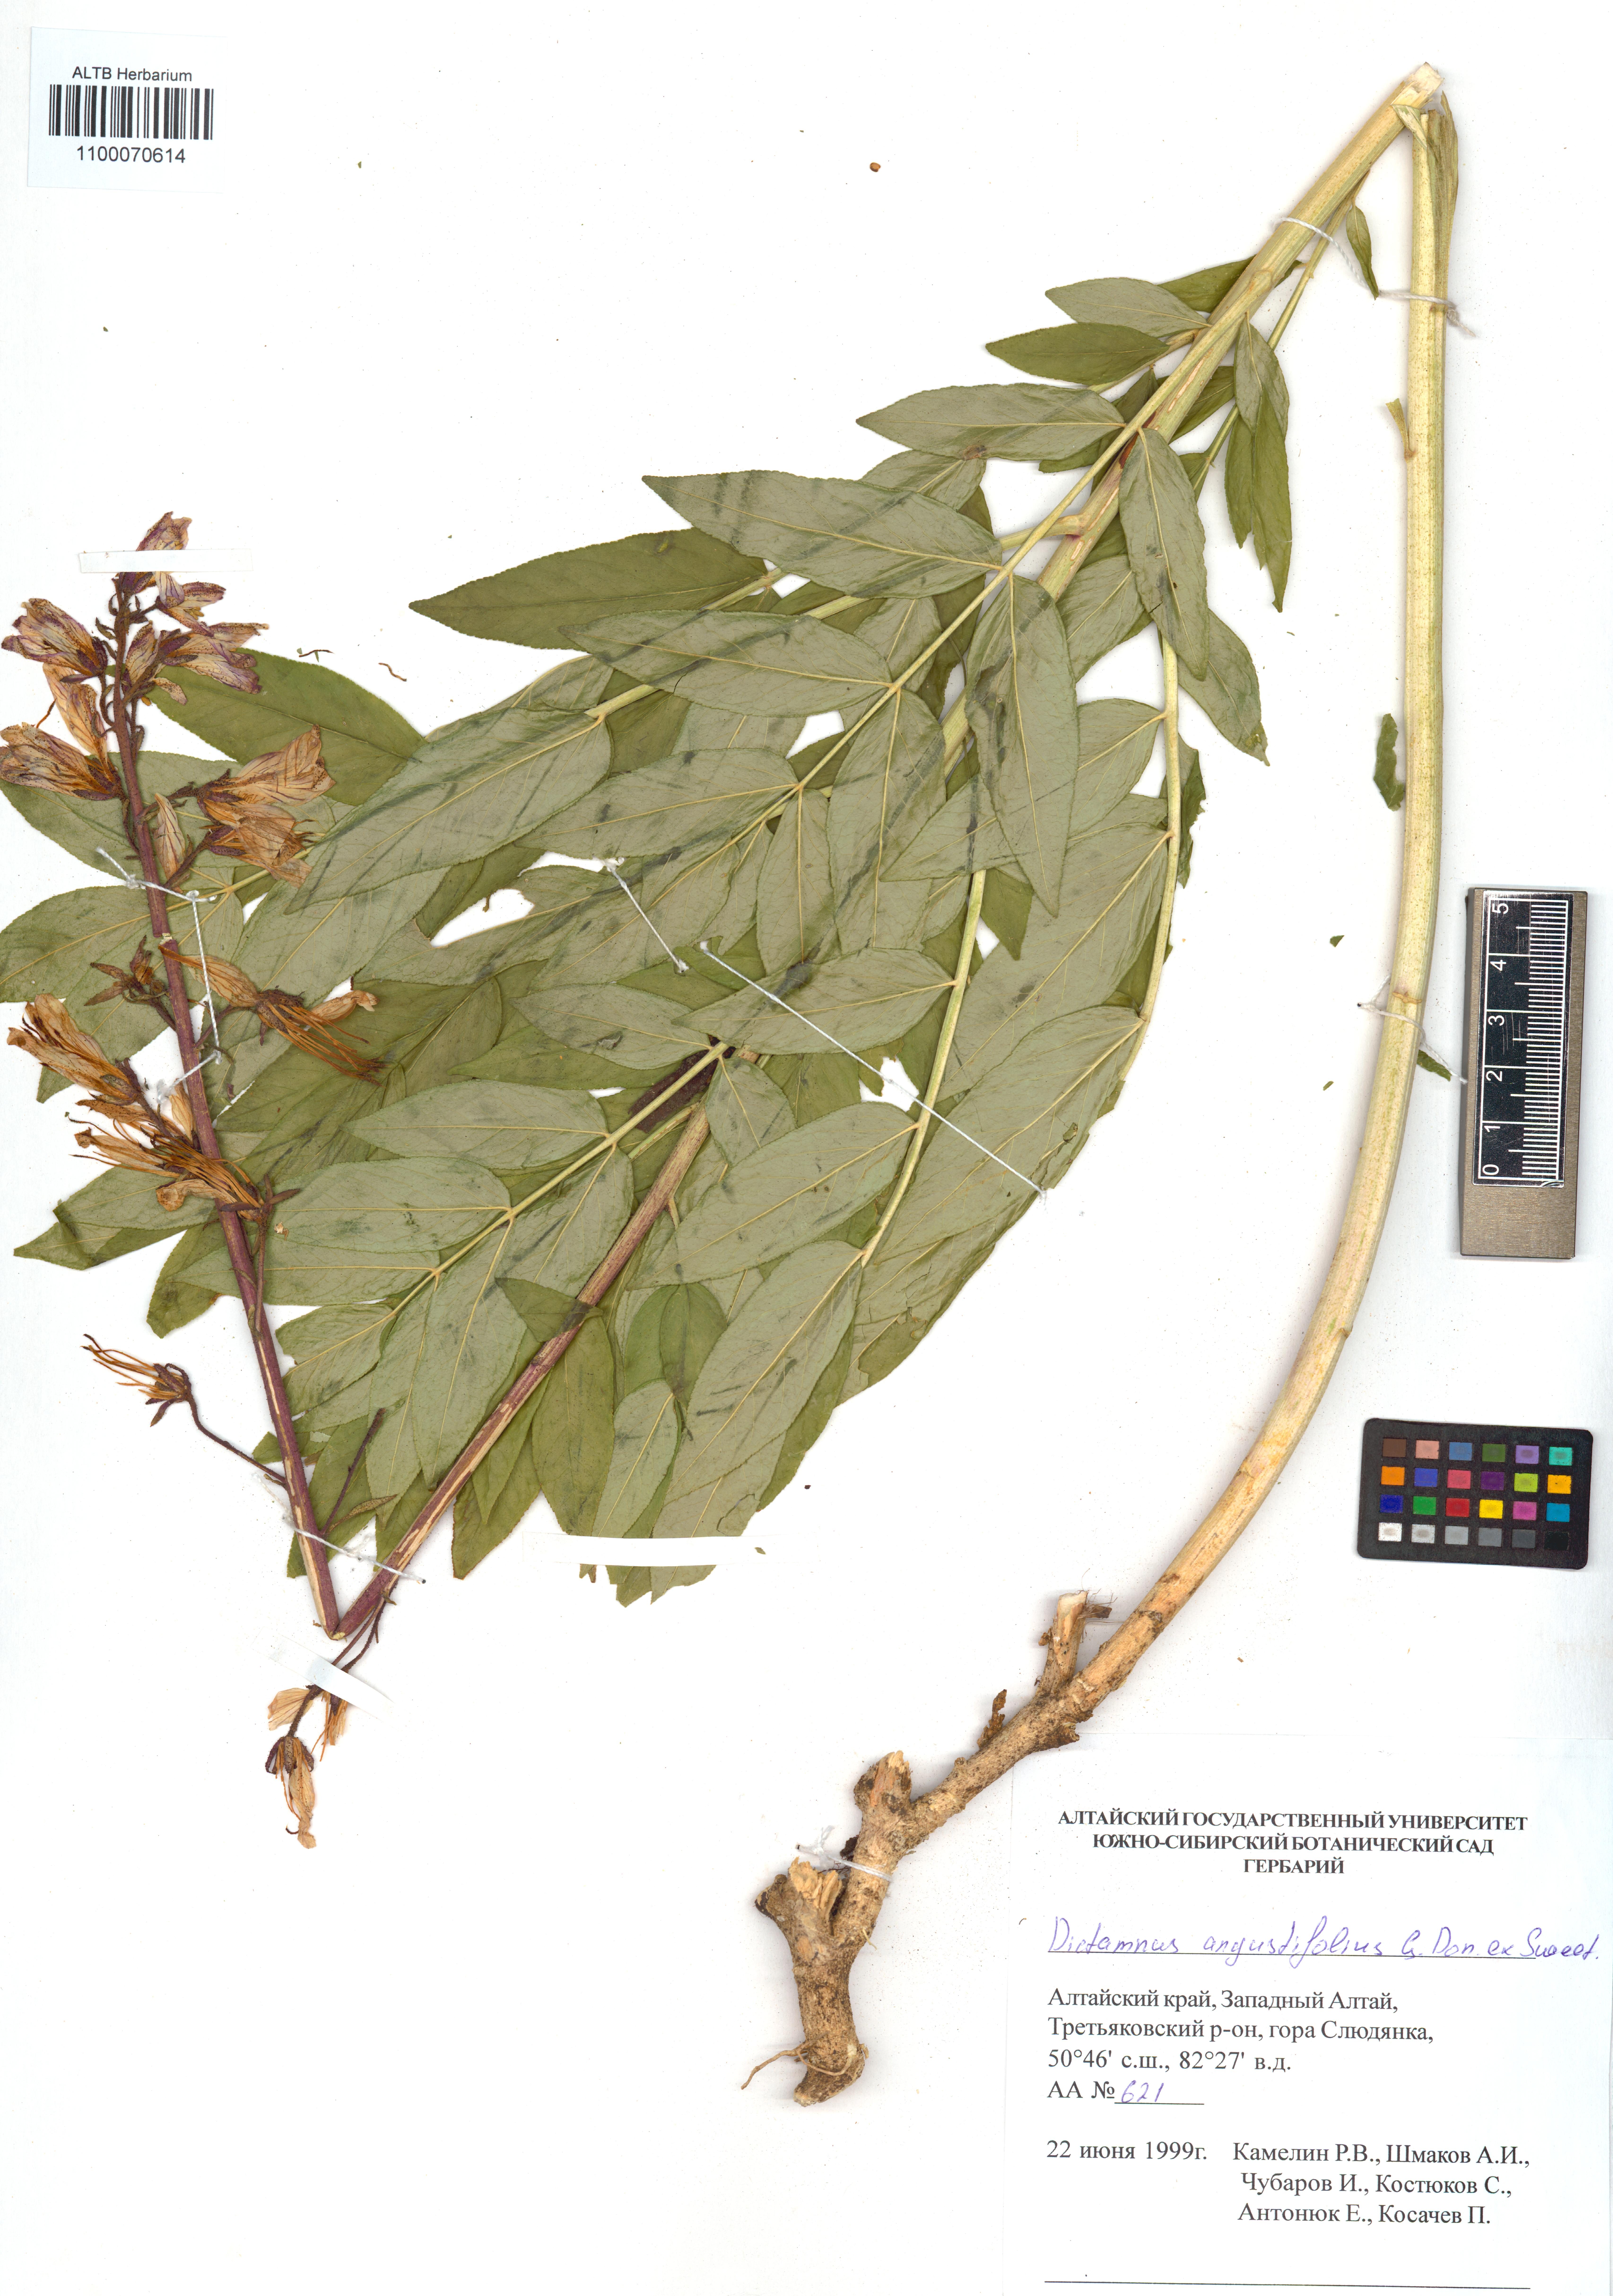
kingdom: Plantae
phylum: Tracheophyta
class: Magnoliopsida
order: Sapindales
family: Rutaceae
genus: Dictamnus
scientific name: Dictamnus albus
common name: Gasplant
